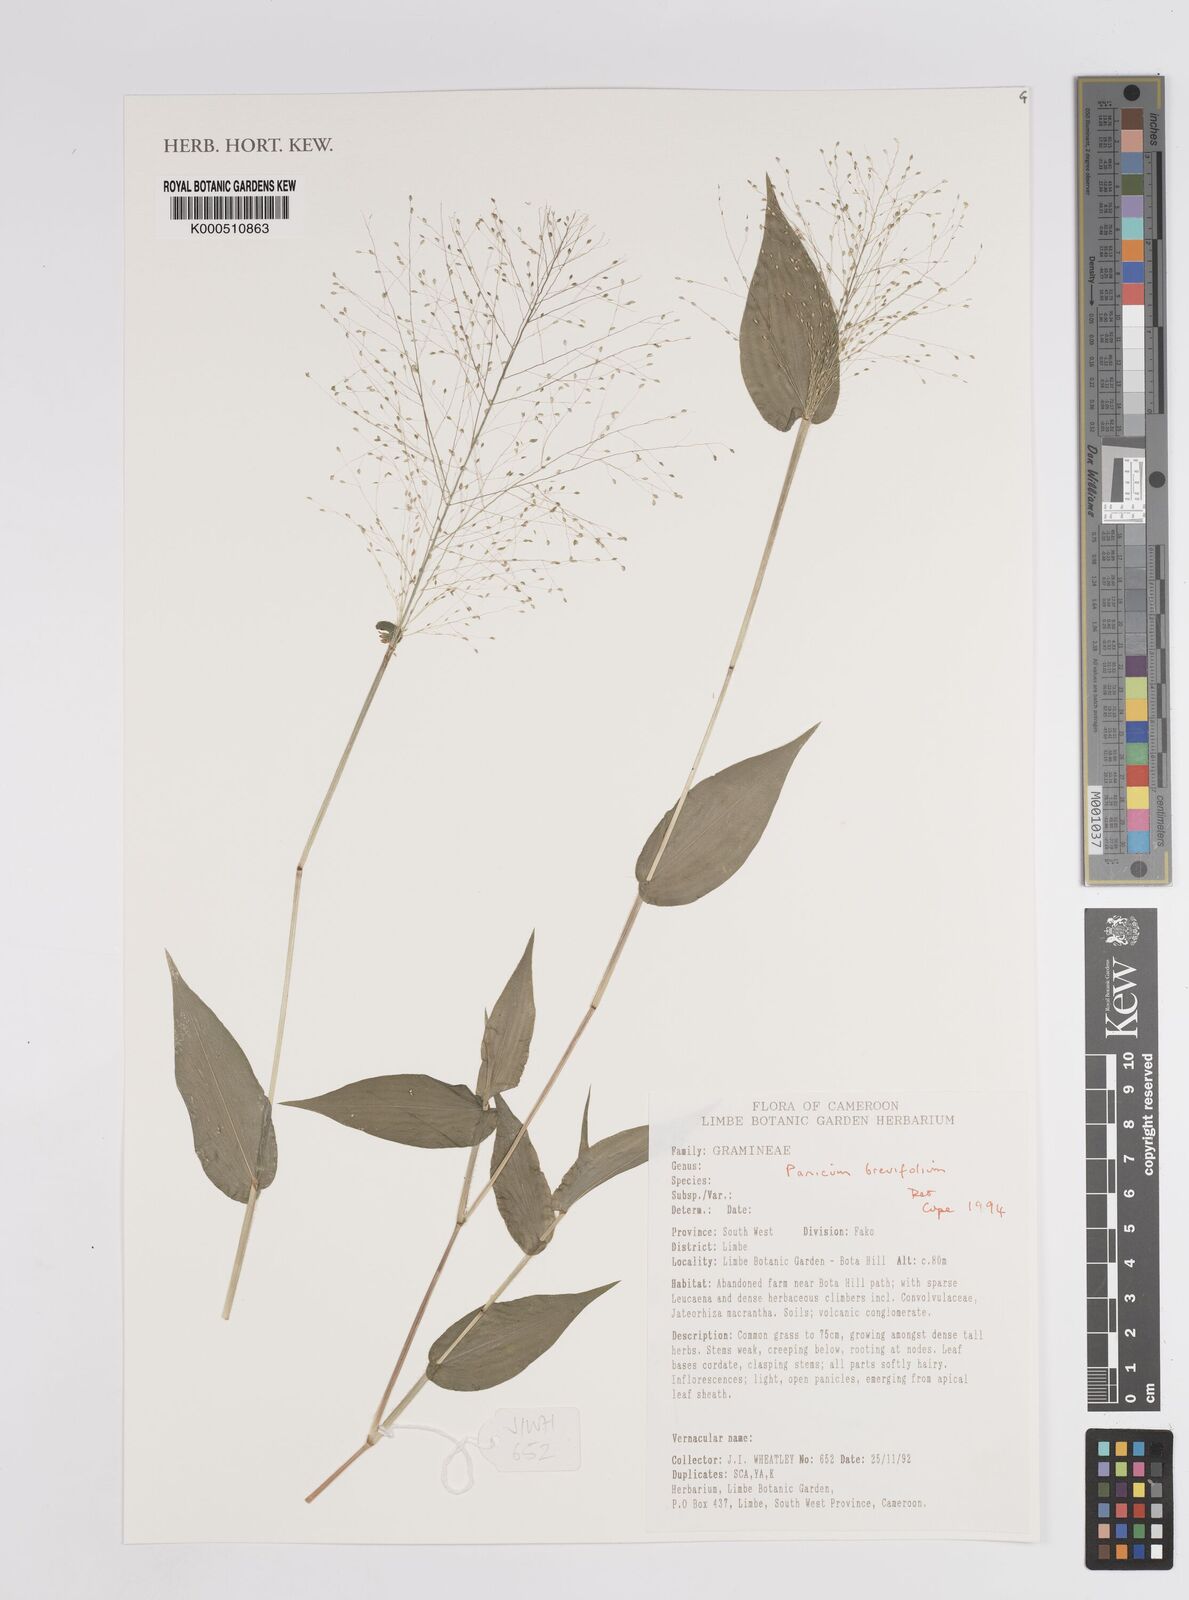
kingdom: Plantae
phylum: Tracheophyta
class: Liliopsida
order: Poales
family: Poaceae
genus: Panicum
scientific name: Panicum brevifolium
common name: Shortleaf panic grass
